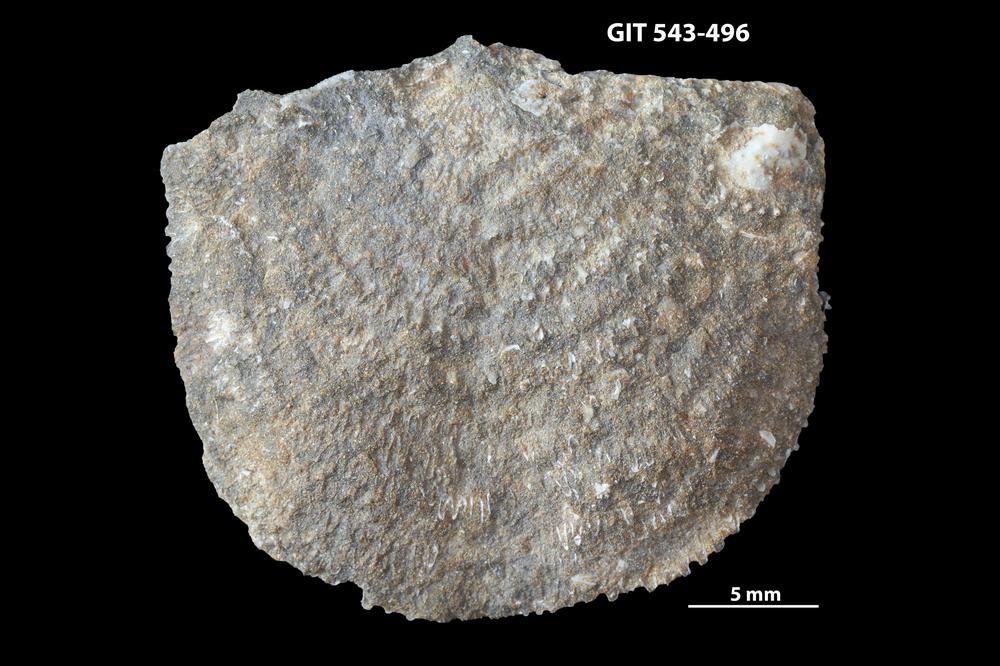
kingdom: Animalia
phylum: Brachiopoda
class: Rhynchonellata
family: Clitambonitidae
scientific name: Clitambonitidae
